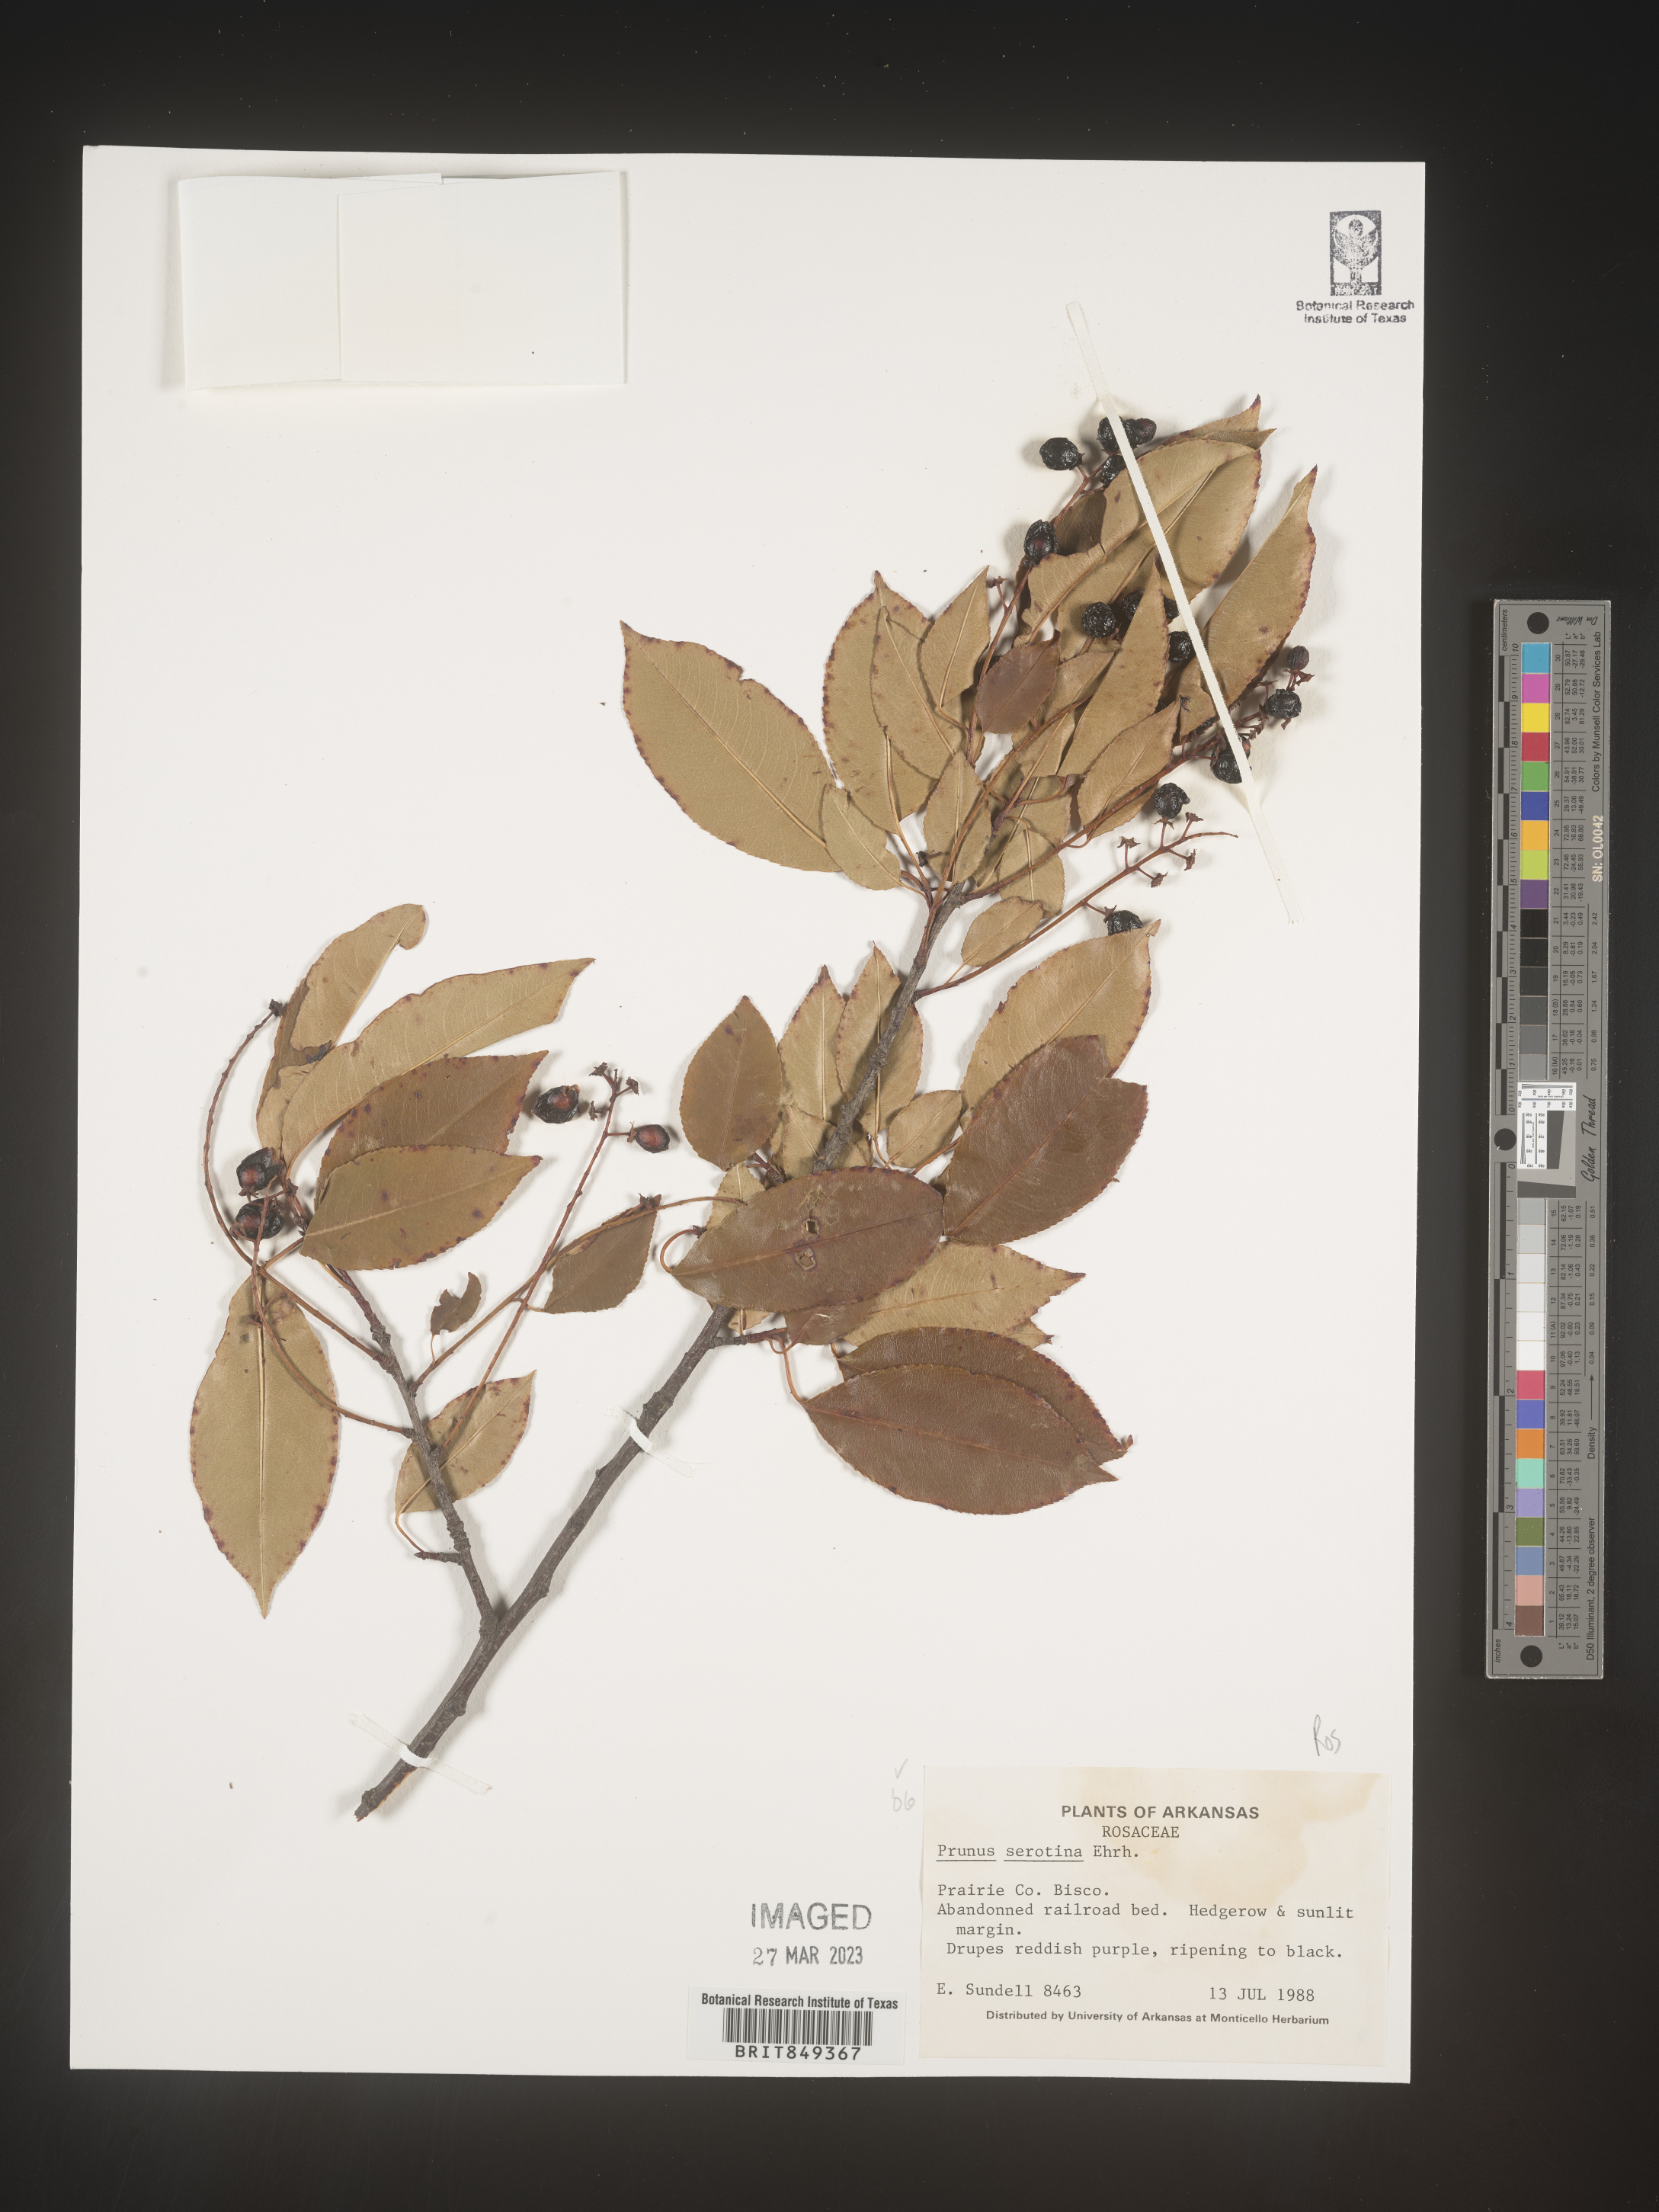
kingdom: Plantae
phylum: Tracheophyta
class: Magnoliopsida
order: Rosales
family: Rosaceae
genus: Prunus
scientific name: Prunus serotina
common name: Black cherry
